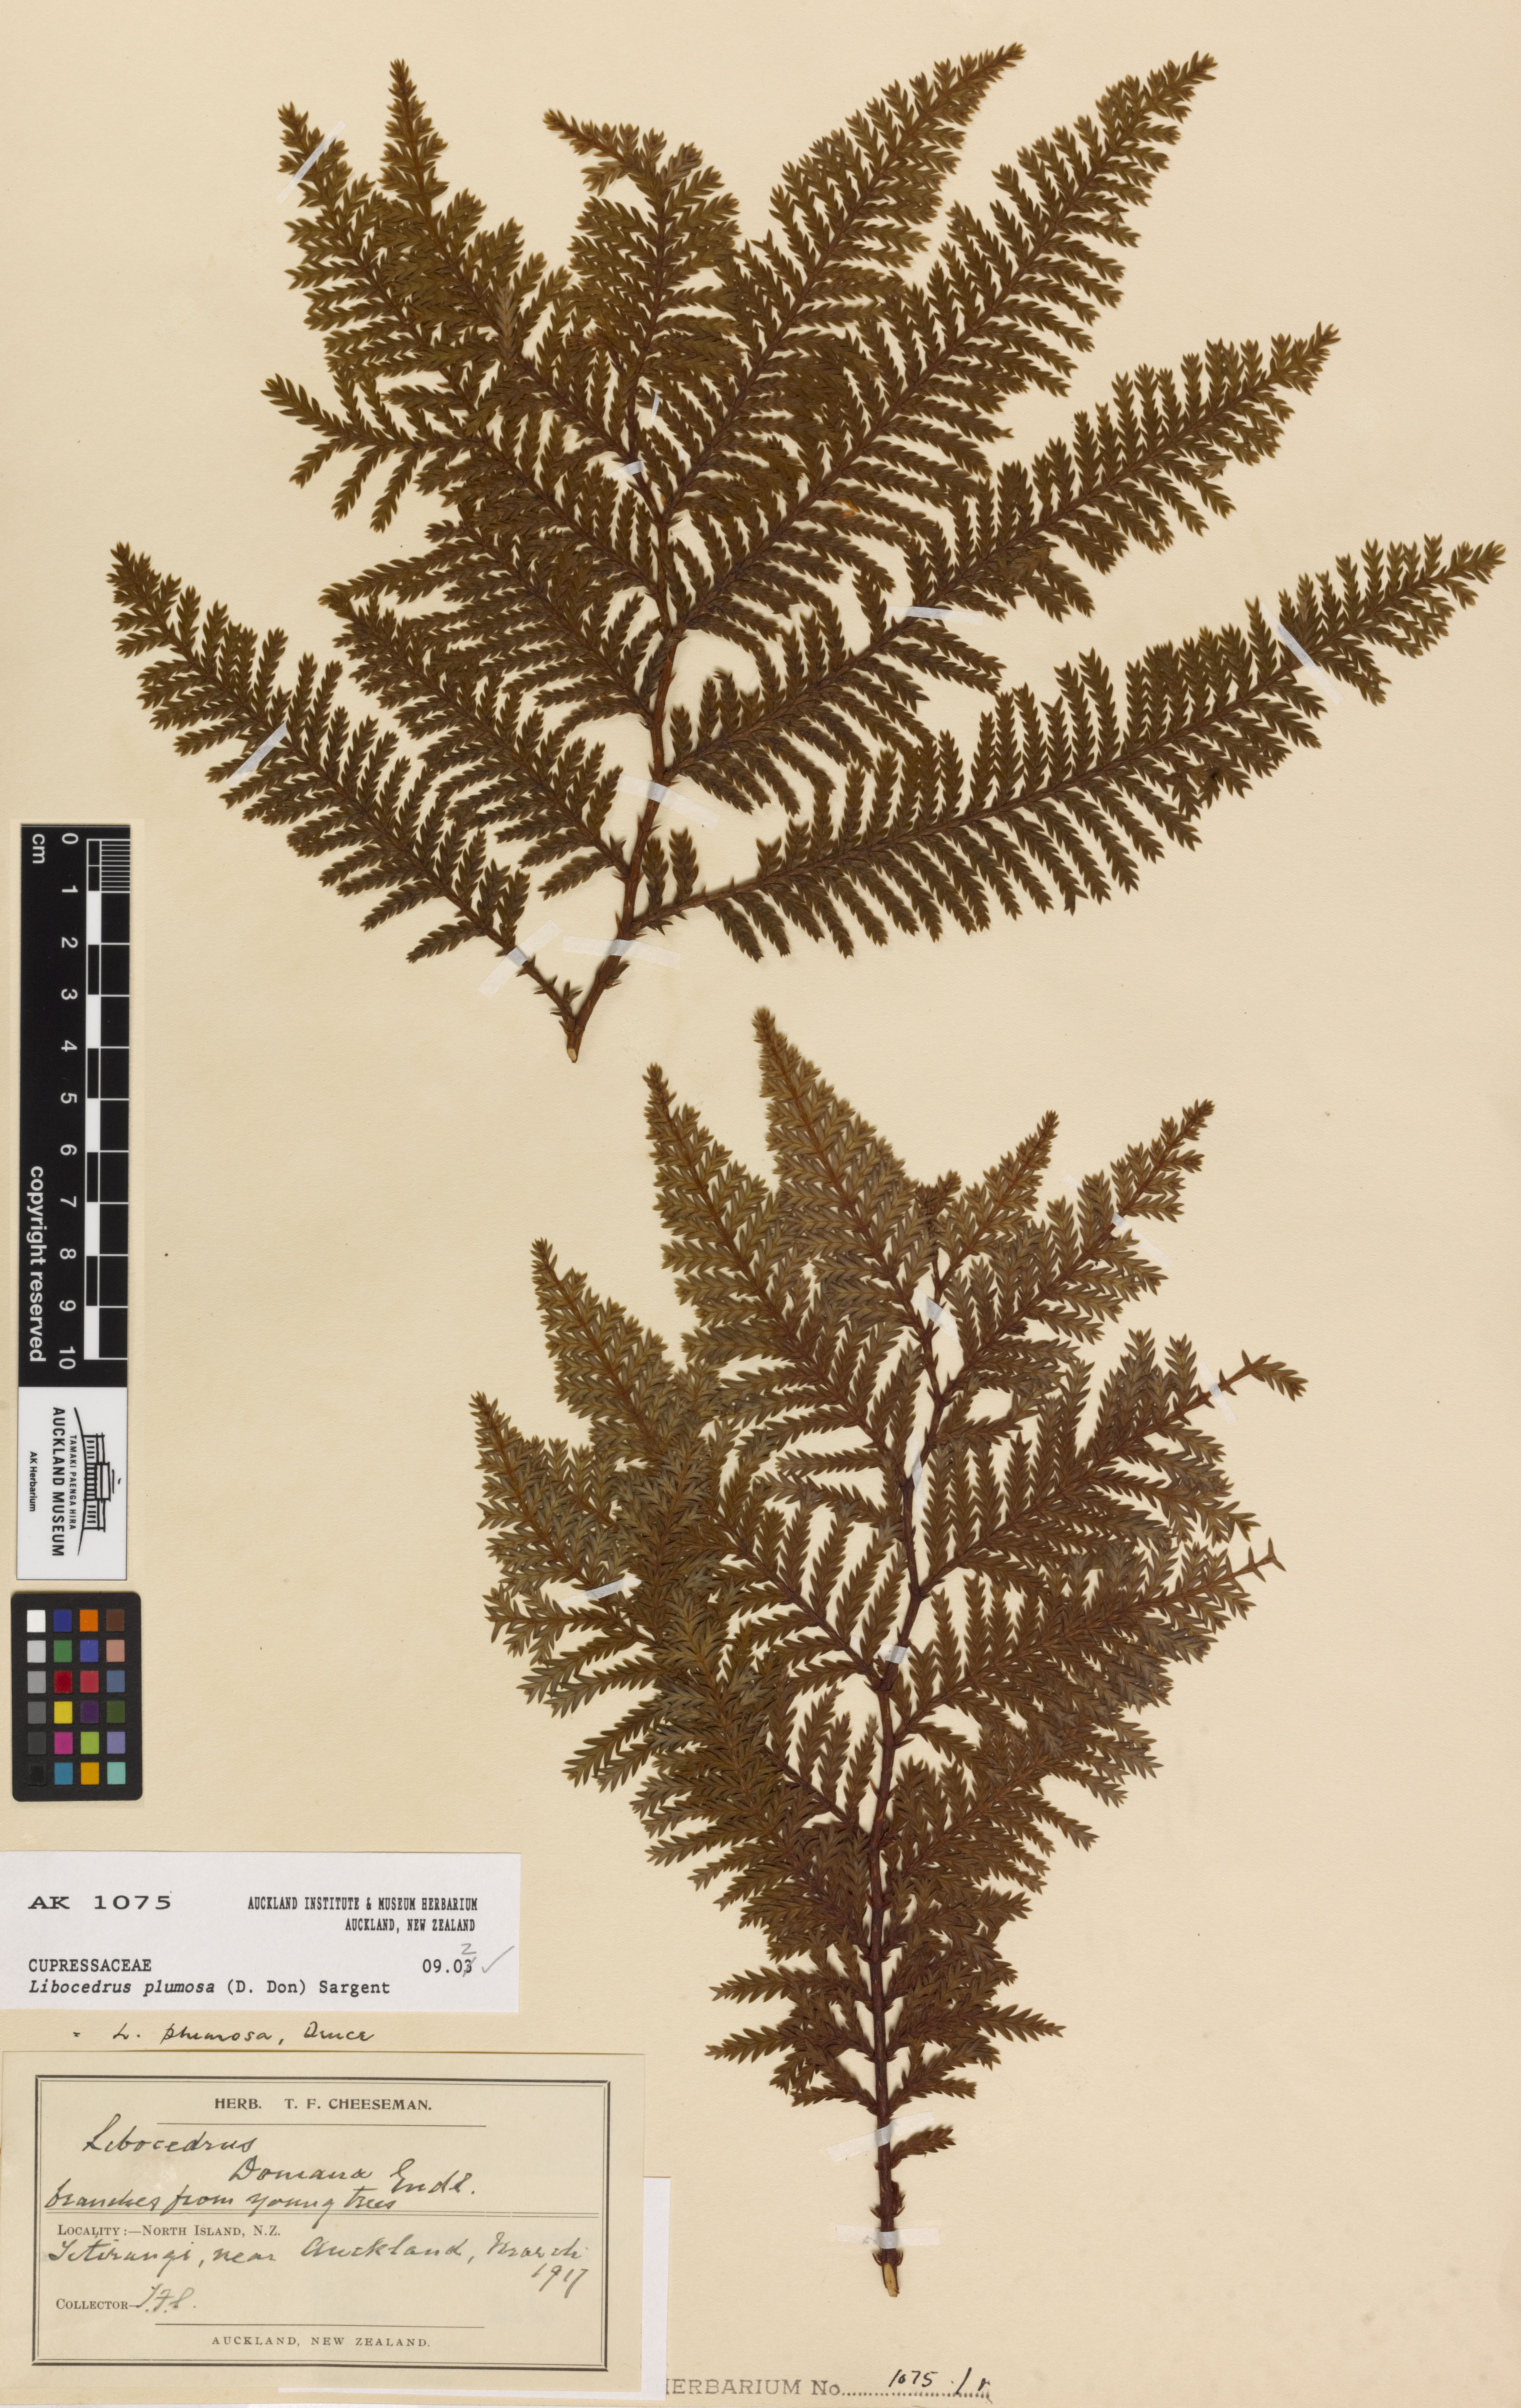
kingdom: Plantae
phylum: Tracheophyta
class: Pinopsida
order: Pinales
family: Cupressaceae
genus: Libocedrus
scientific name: Libocedrus plumosa
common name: New zealand cedar
